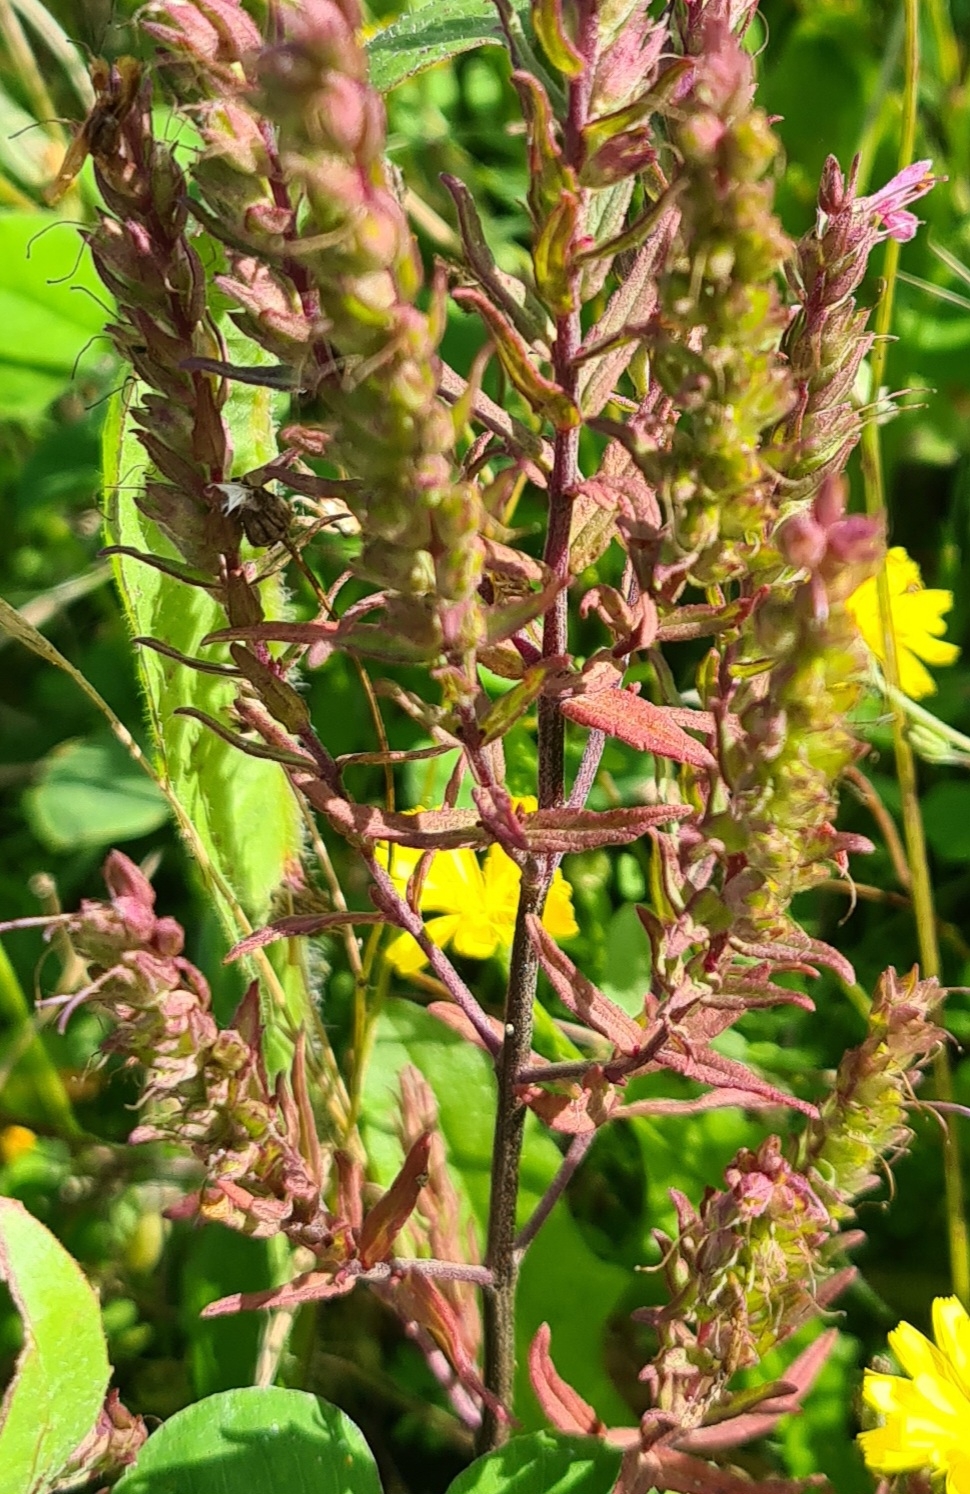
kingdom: Plantae
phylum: Tracheophyta
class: Magnoliopsida
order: Lamiales
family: Orobanchaceae
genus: Odontites
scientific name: Odontites vernus
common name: Mark-rødtop
